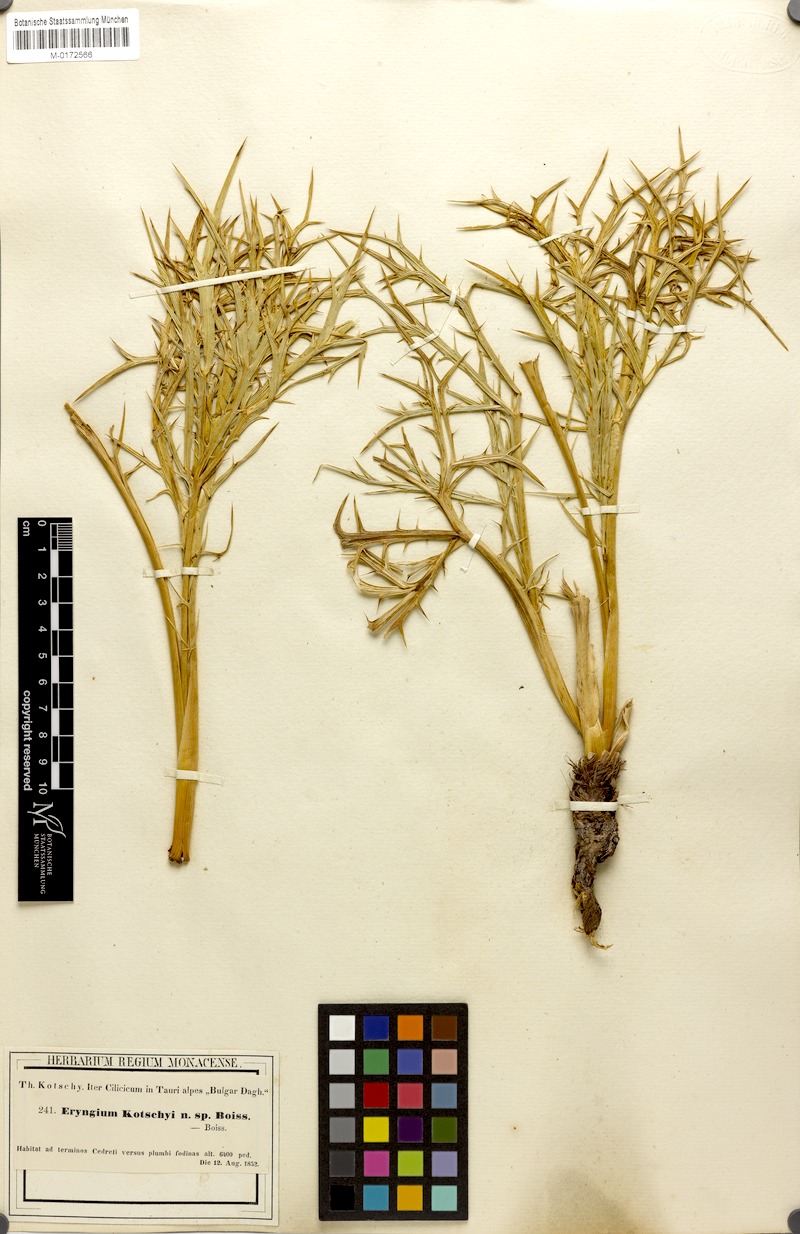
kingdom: Plantae
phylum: Tracheophyta
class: Magnoliopsida
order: Apiales
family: Apiaceae
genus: Eryngium
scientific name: Eryngium billardierei
